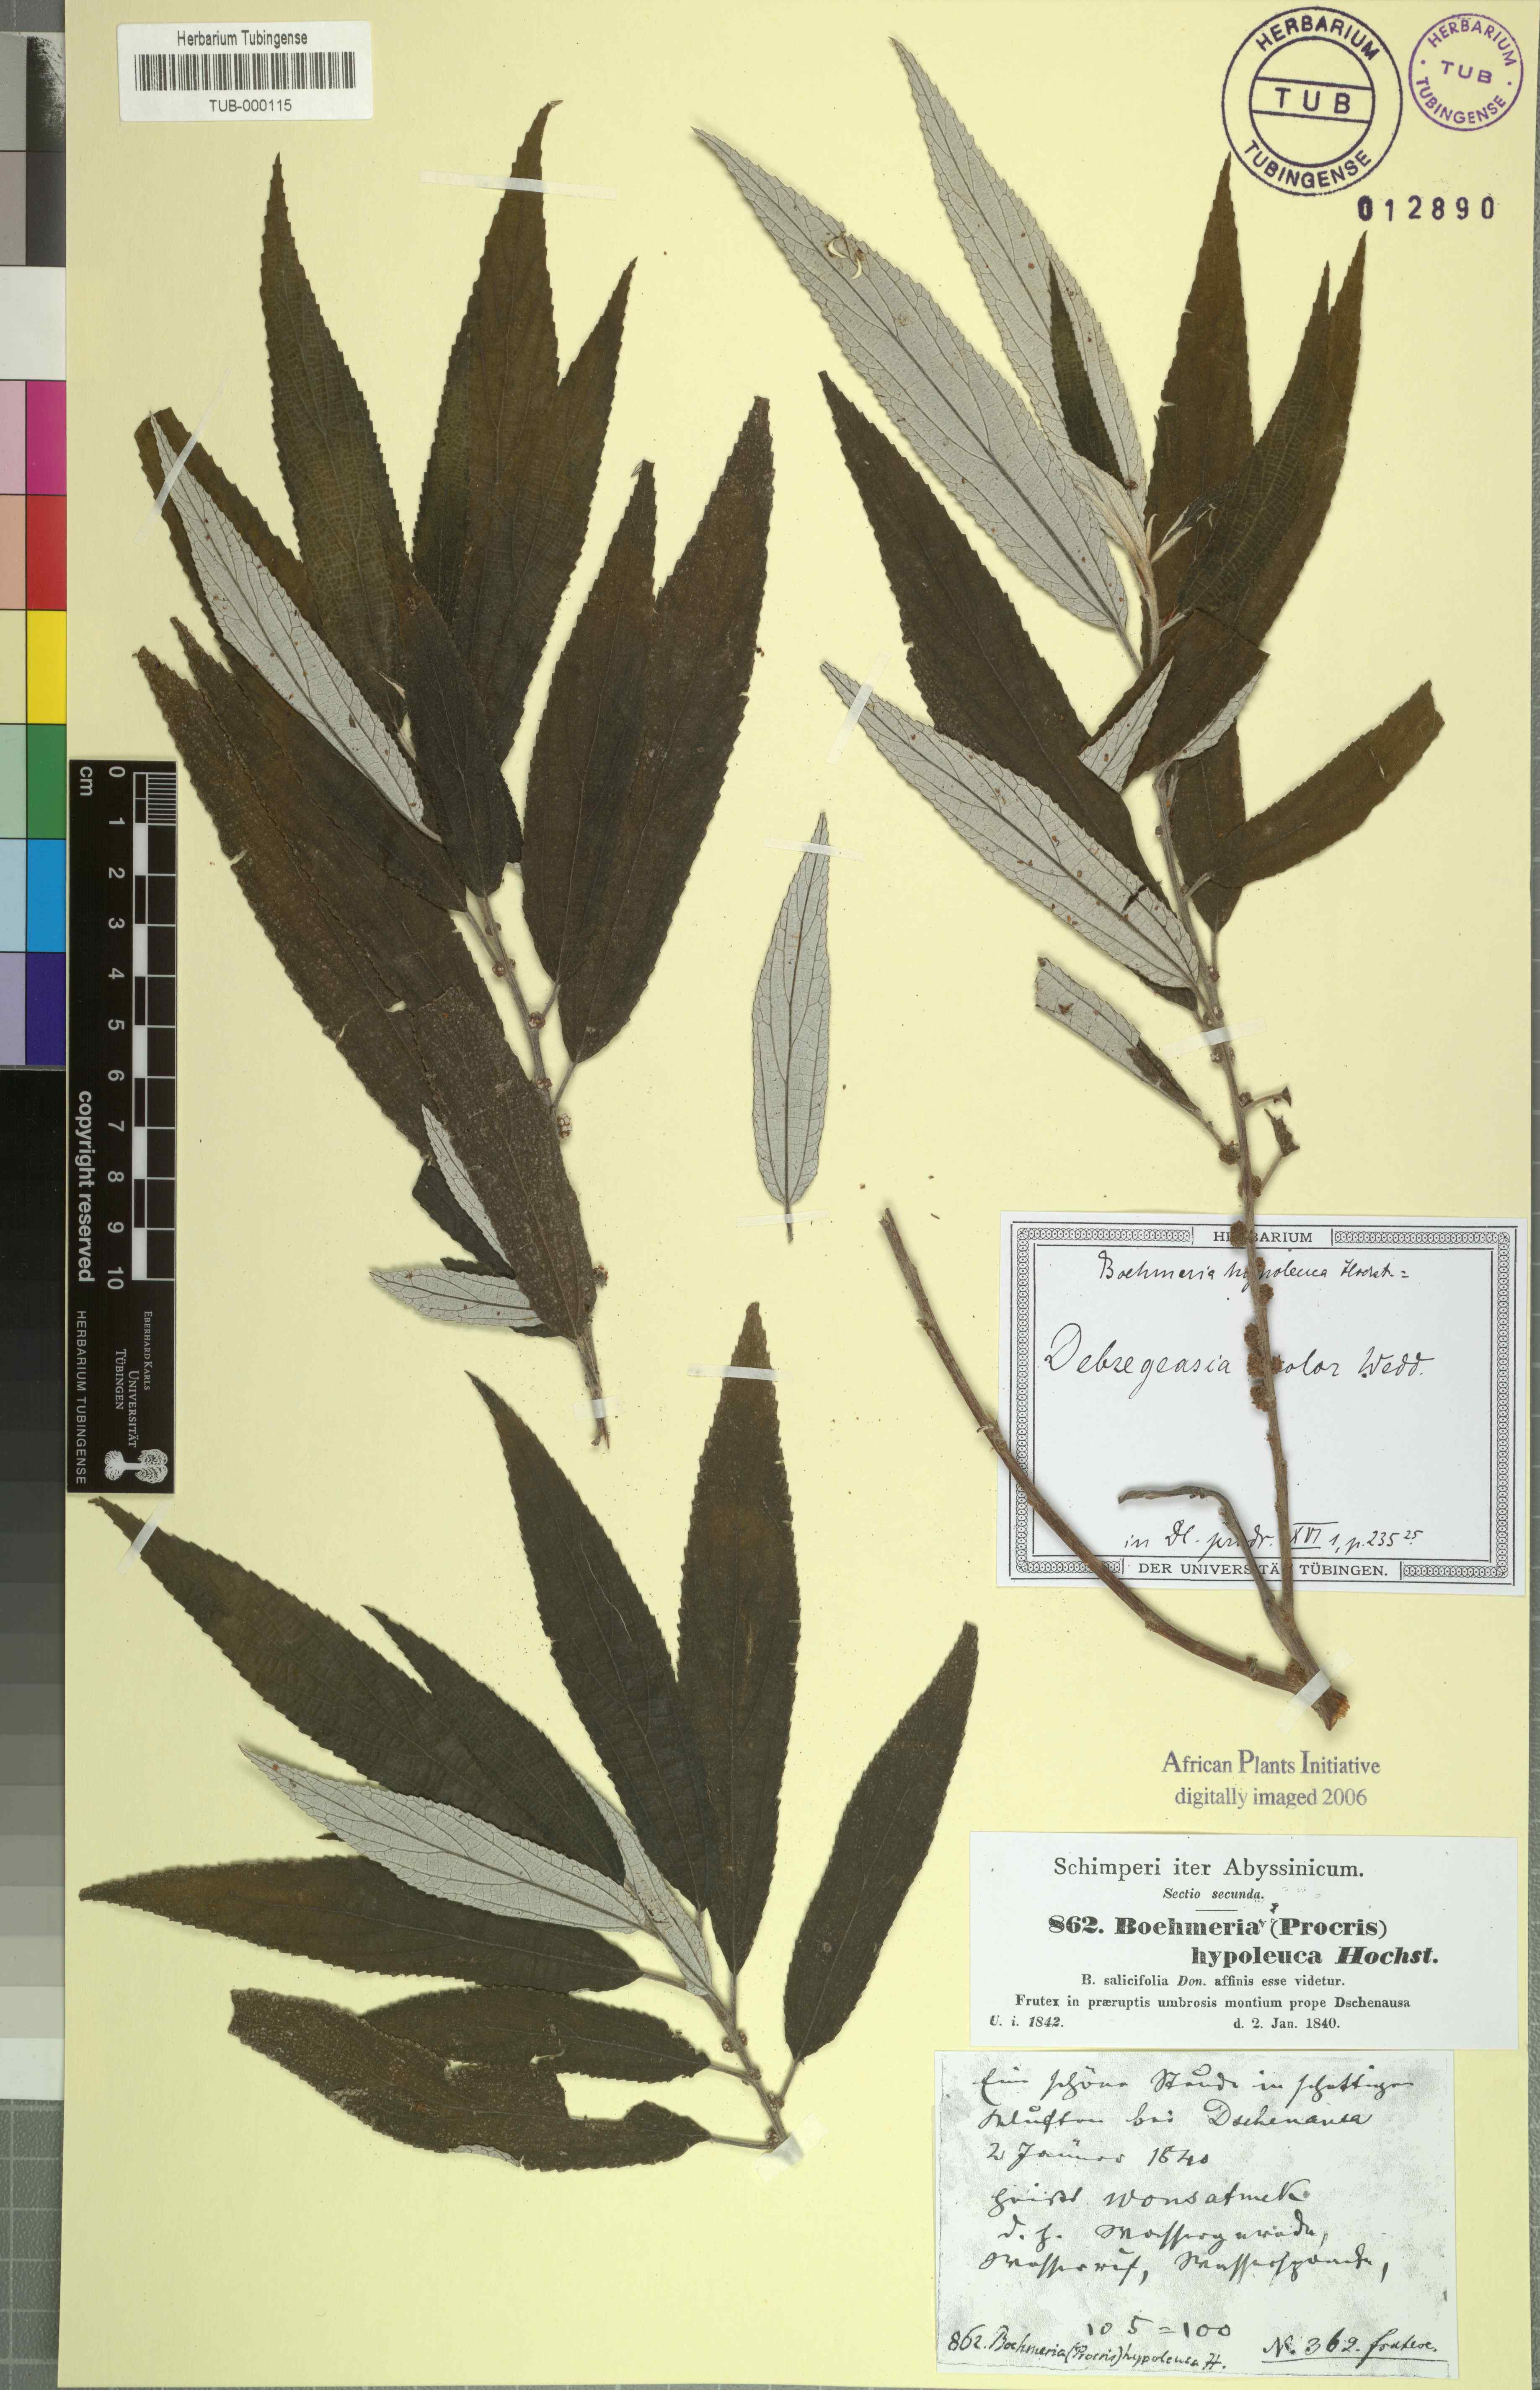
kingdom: Plantae
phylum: Tracheophyta
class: Magnoliopsida
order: Rosales
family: Urticaceae
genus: Debregeasia
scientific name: Debregeasia saeneb
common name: Himalayan wild rhea
